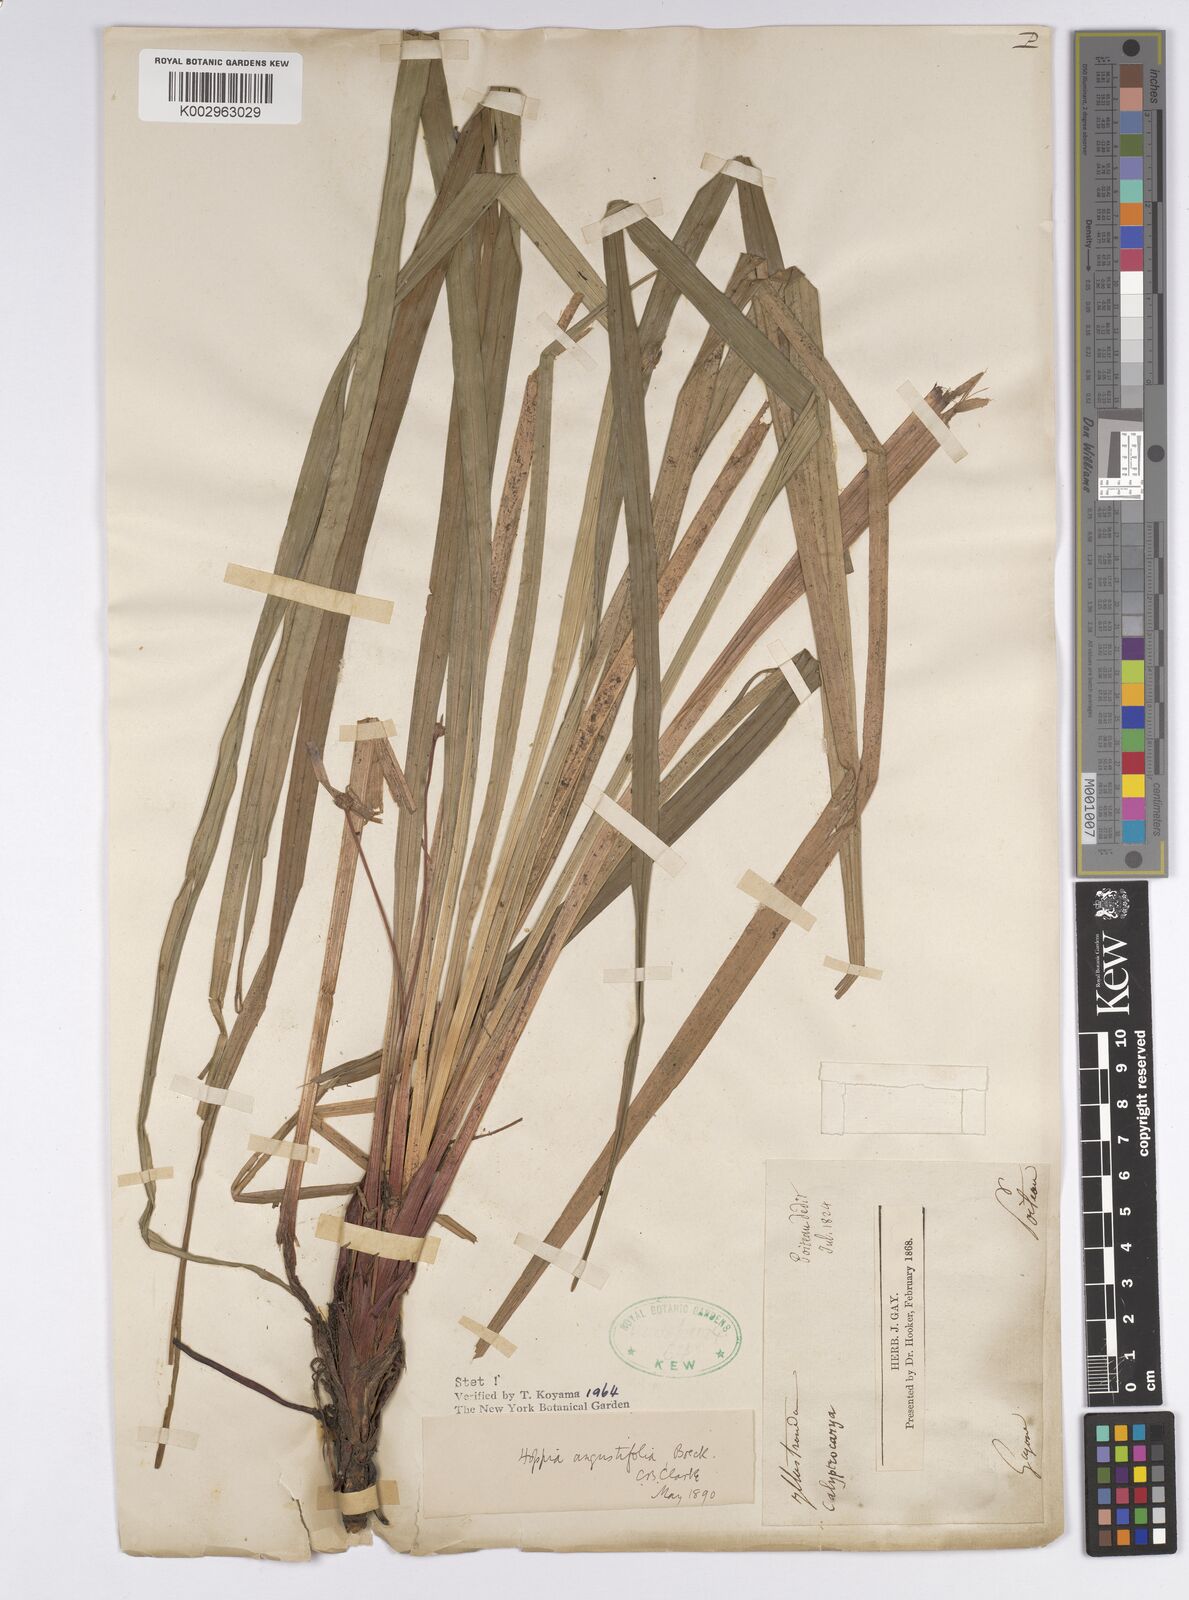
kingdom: Plantae
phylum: Tracheophyta
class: Liliopsida
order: Poales
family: Cyperaceae
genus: Bisboeckelera
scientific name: Bisboeckelera longifolia
